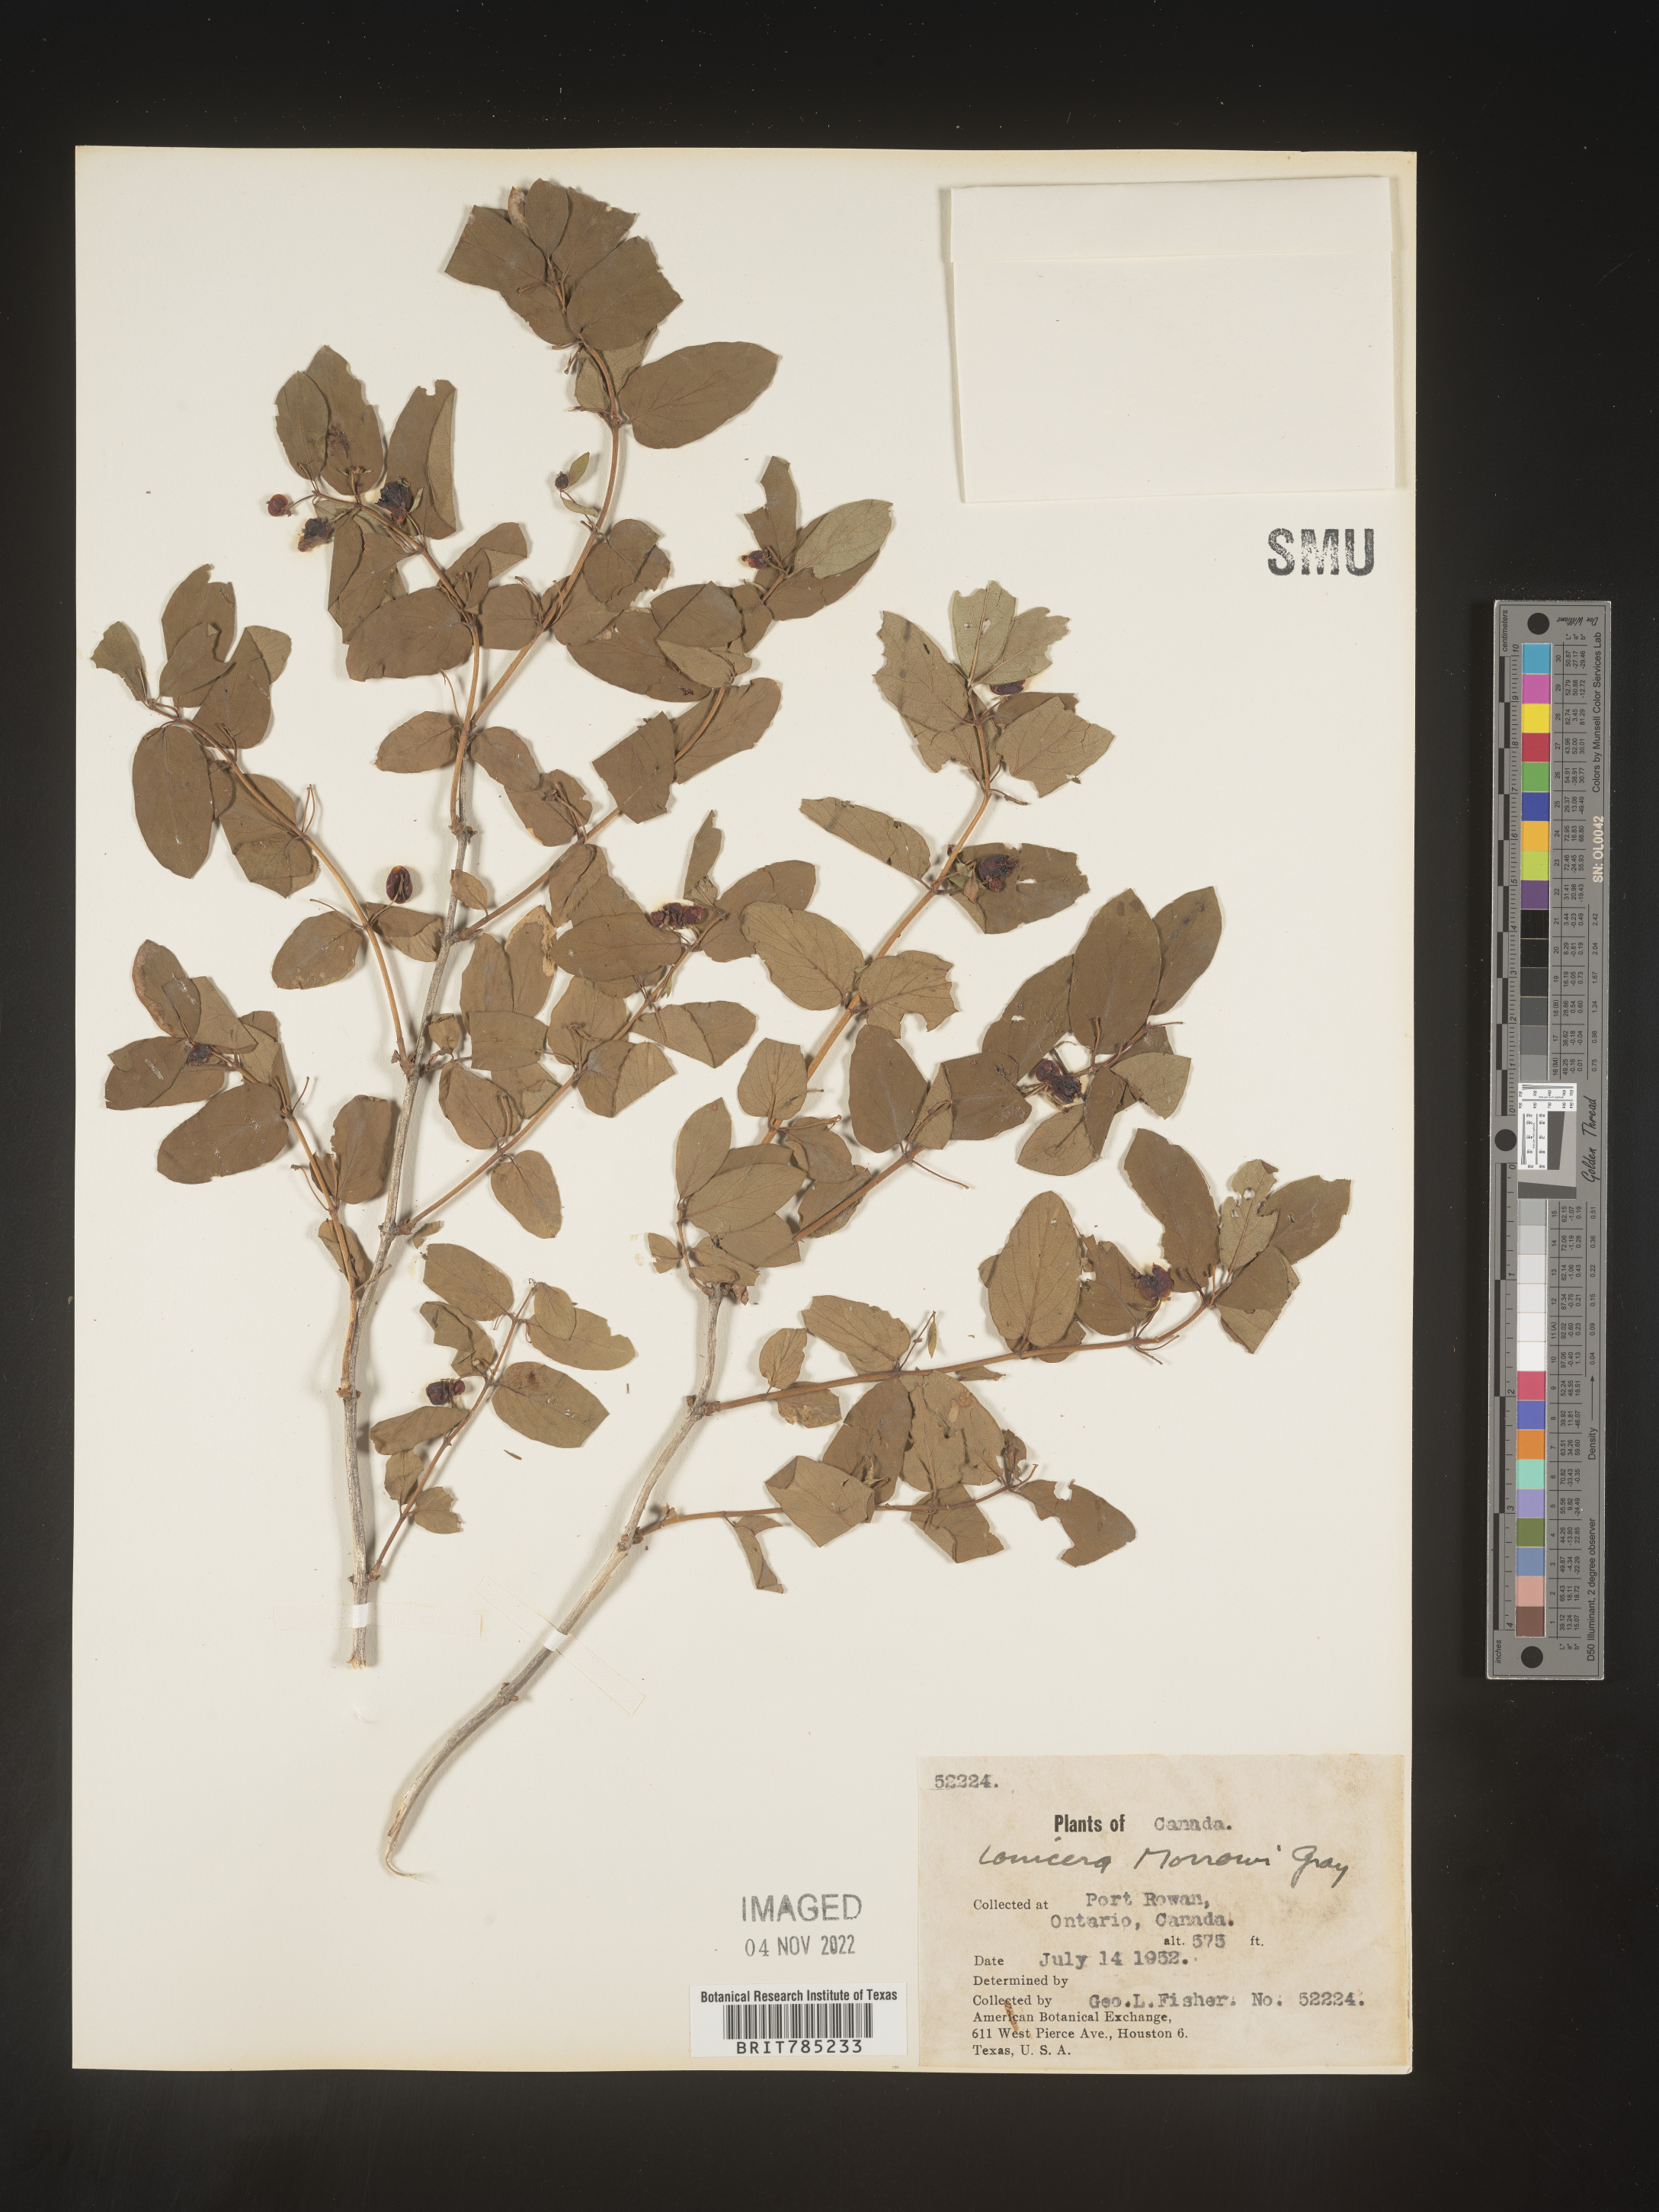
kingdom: Plantae
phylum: Tracheophyta
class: Magnoliopsida
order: Dipsacales
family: Caprifoliaceae
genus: Lonicera
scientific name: Lonicera
